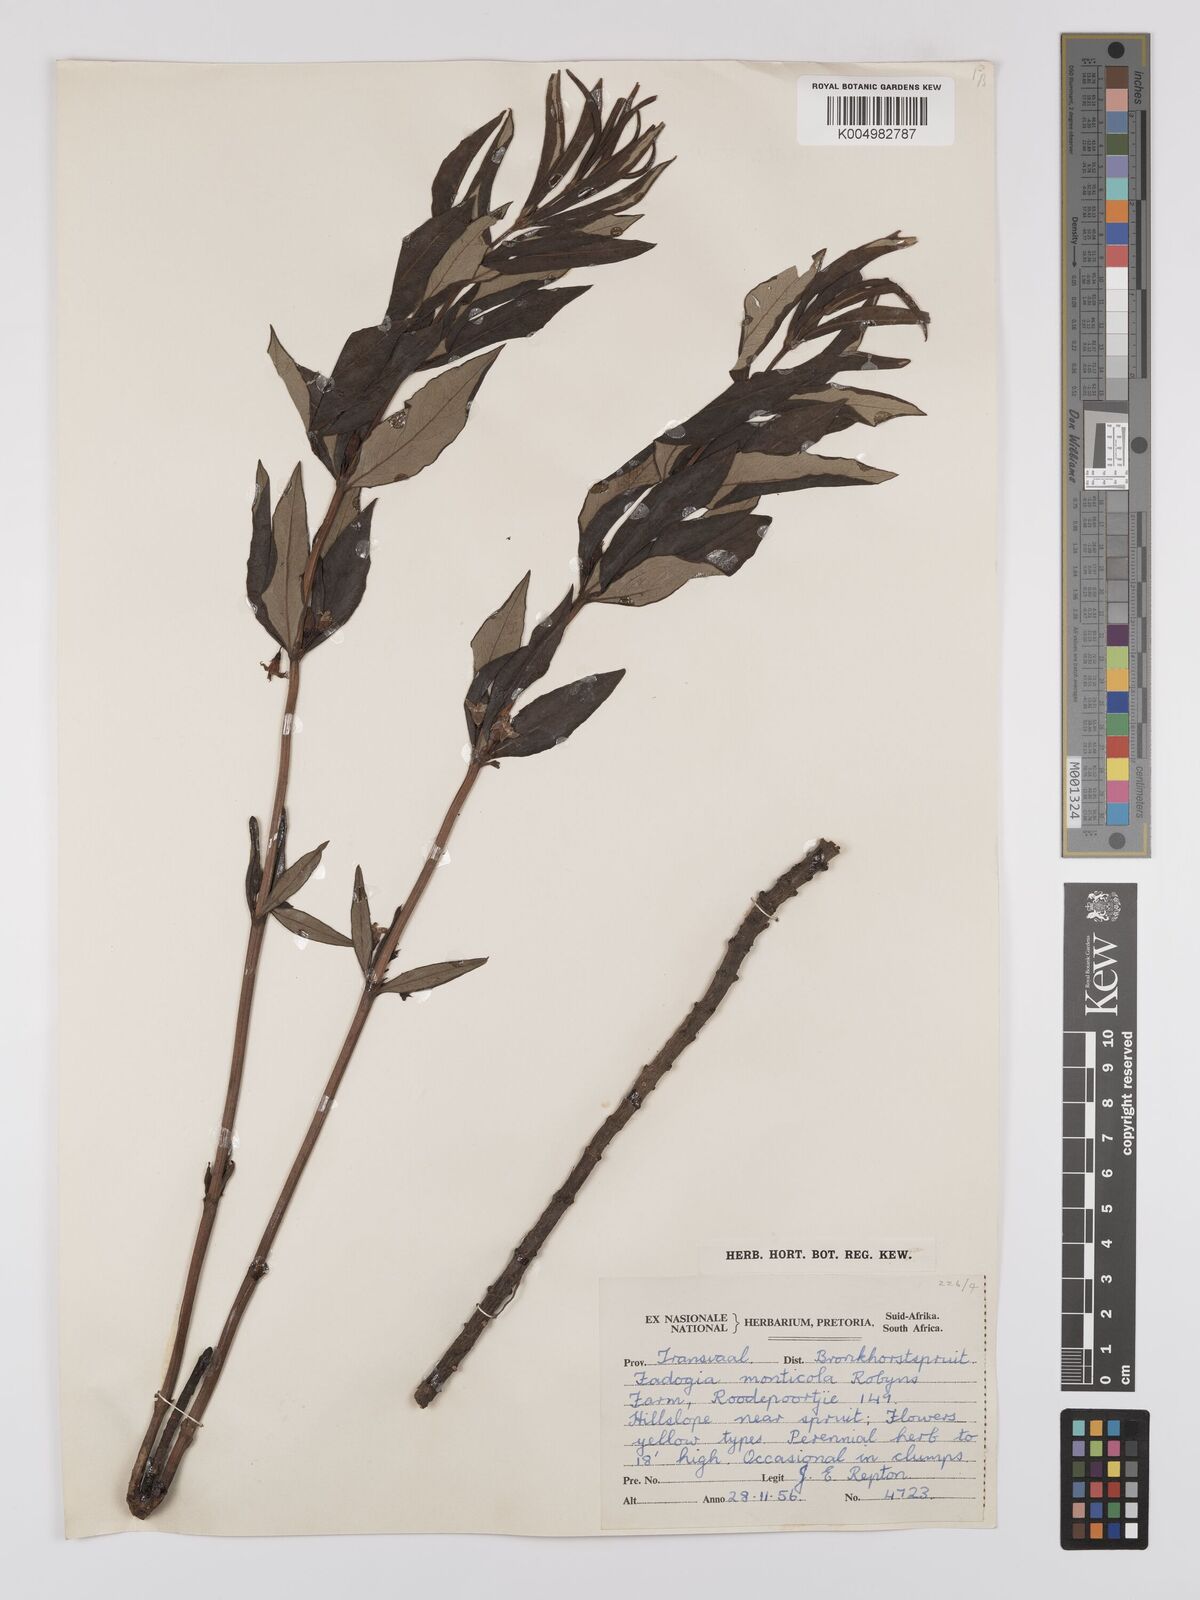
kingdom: Plantae
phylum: Tracheophyta
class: Magnoliopsida
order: Gentianales
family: Rubiaceae
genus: Fadogia
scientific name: Fadogia homblei
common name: Wild date
